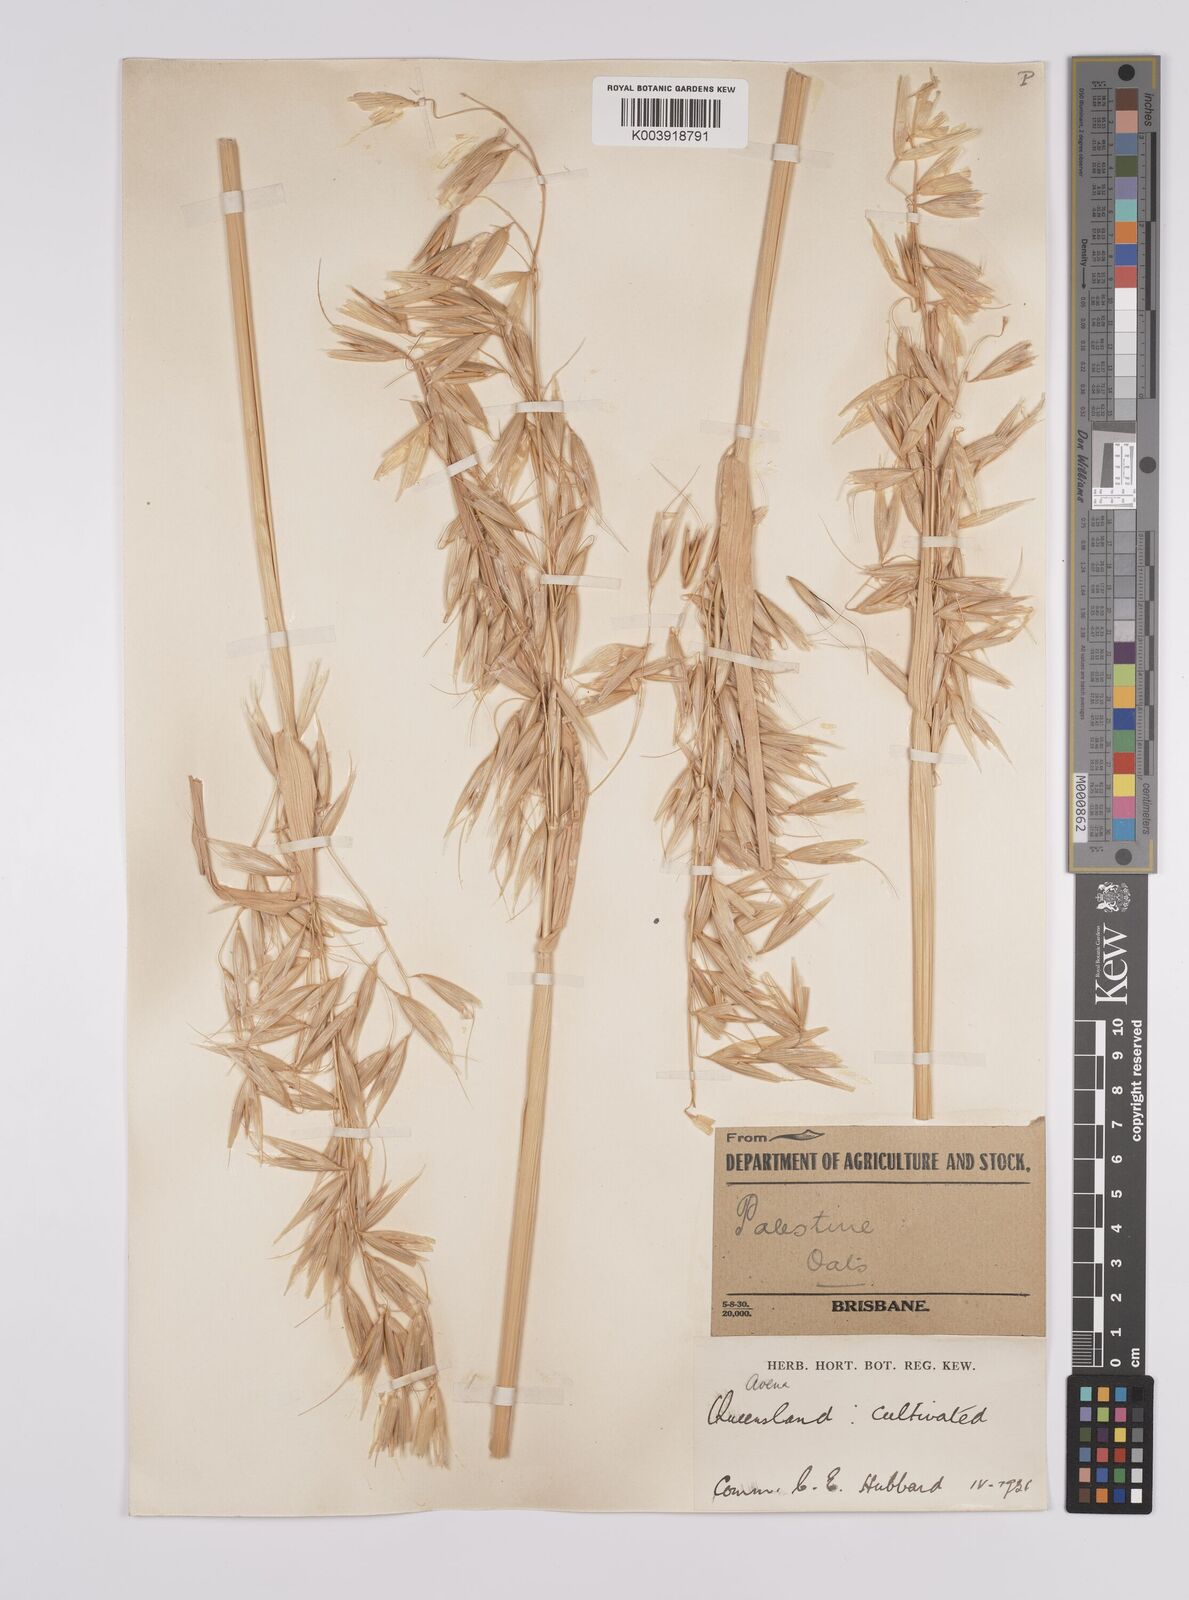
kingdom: Plantae
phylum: Tracheophyta
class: Liliopsida
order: Poales
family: Poaceae
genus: Avena
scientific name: Avena byzantina
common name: Algerian oat
